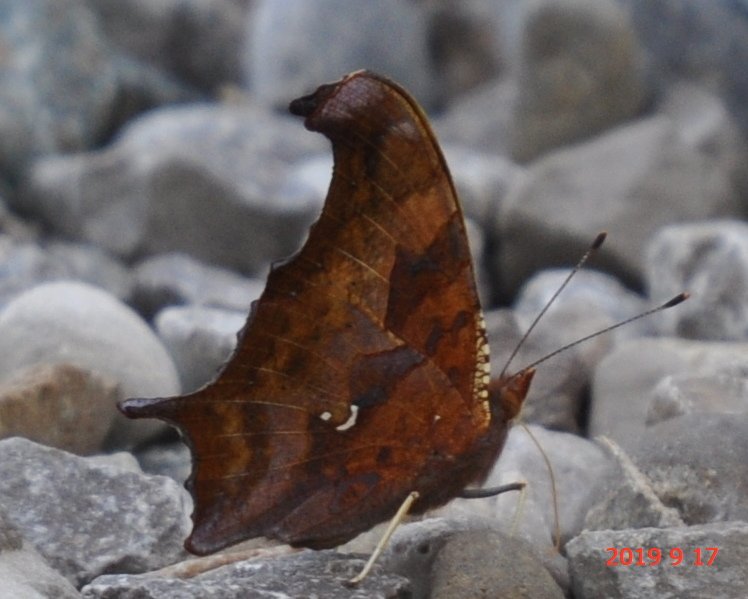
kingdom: Animalia
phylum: Arthropoda
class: Insecta
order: Lepidoptera
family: Nymphalidae
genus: Polygonia
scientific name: Polygonia interrogationis
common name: Question Mark
